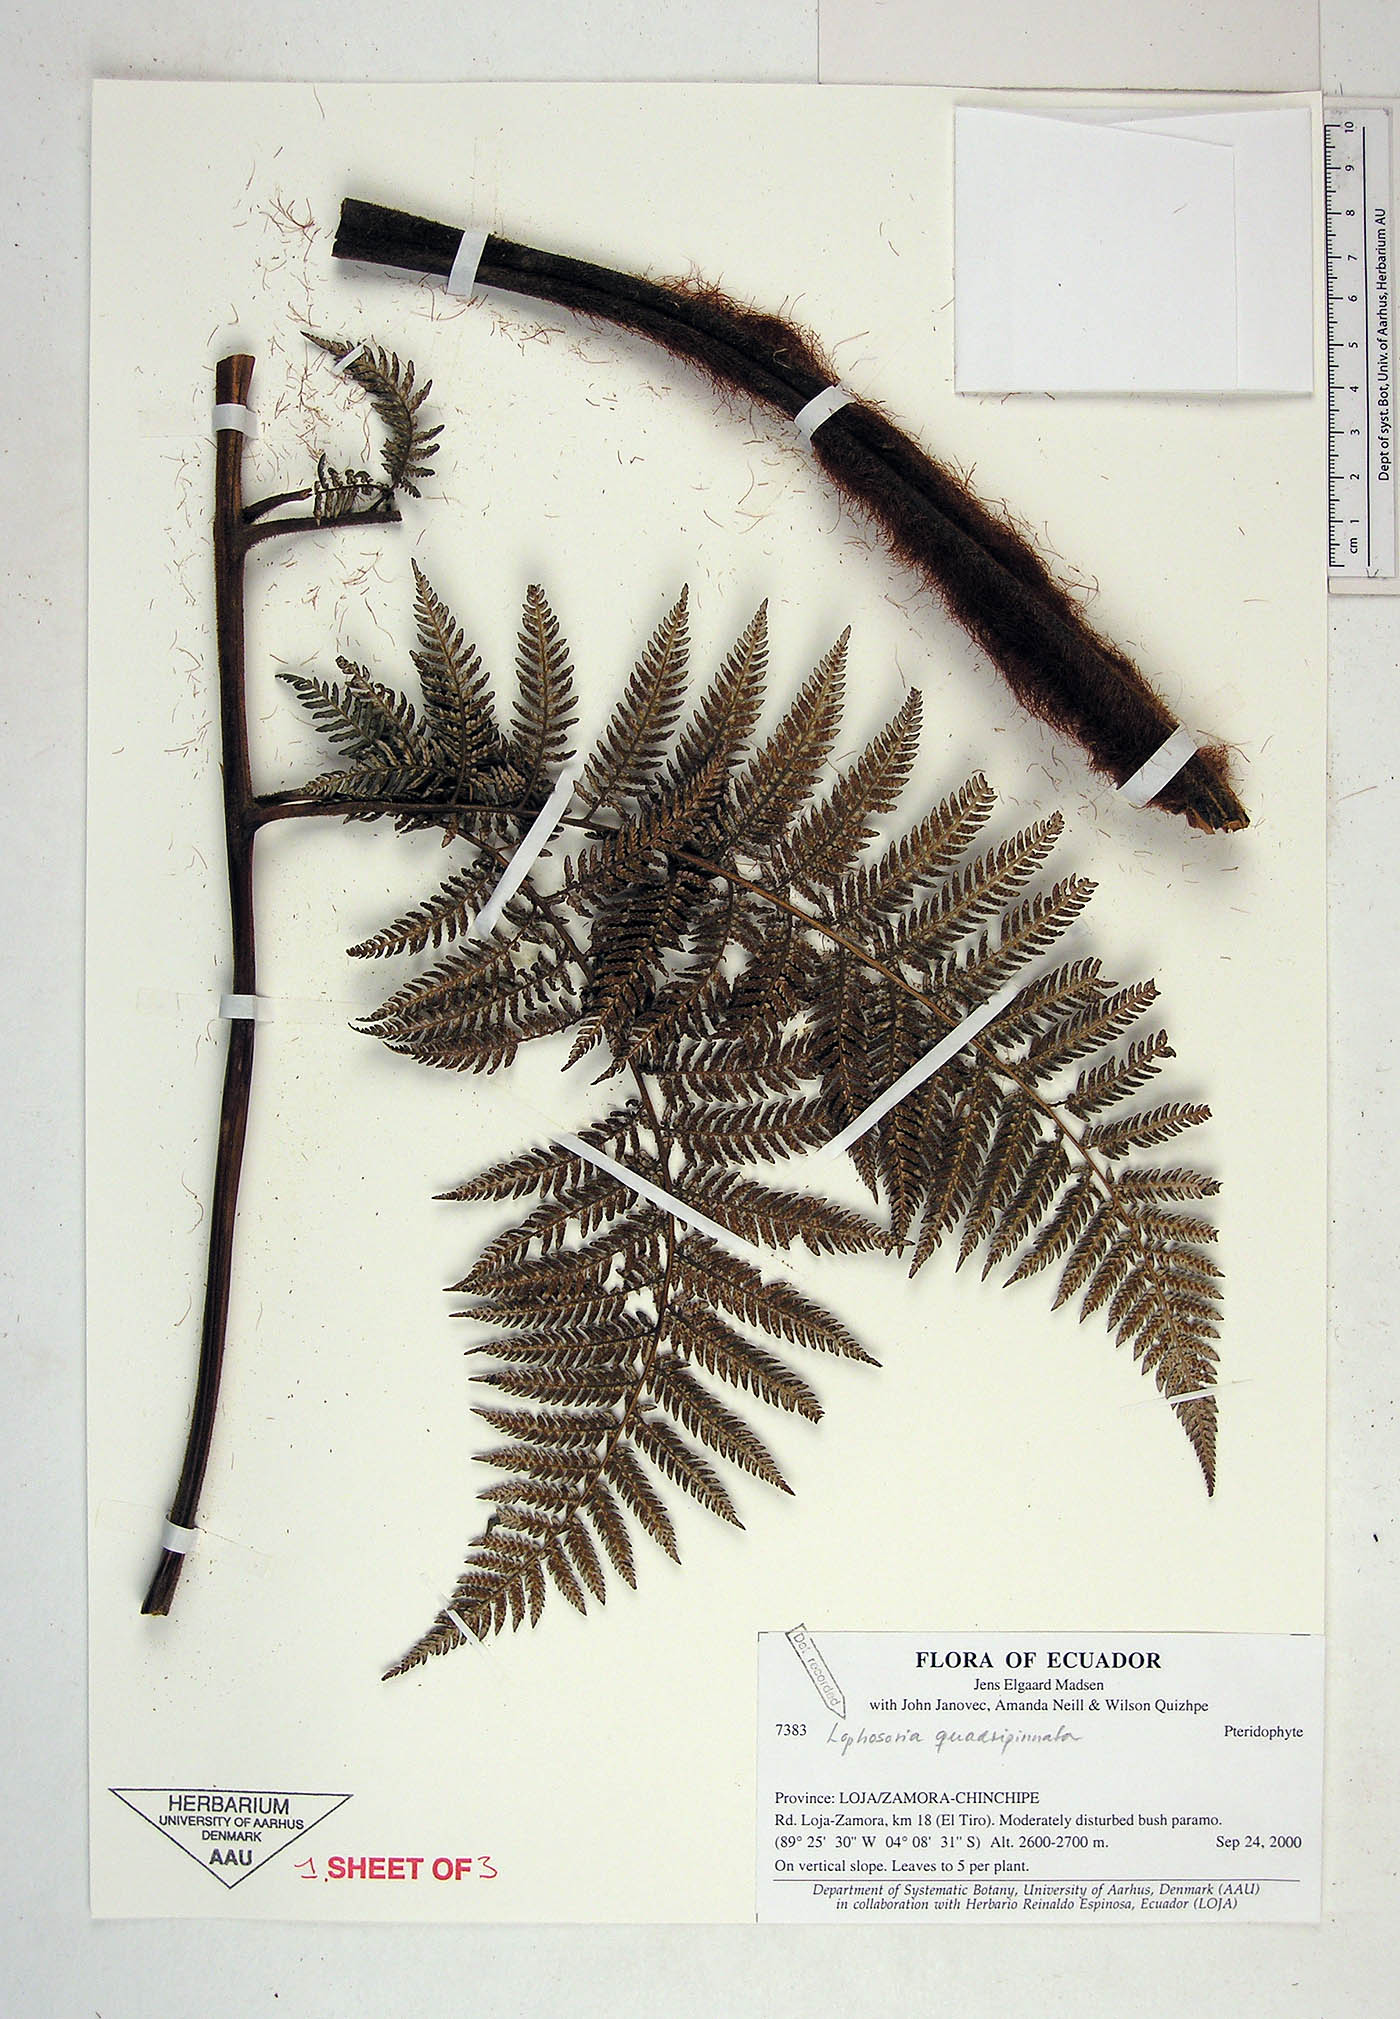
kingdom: Plantae
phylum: Tracheophyta
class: Polypodiopsida
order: Cyatheales
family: Dicksoniaceae
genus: Lophosoria
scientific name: Lophosoria quadripinnata
